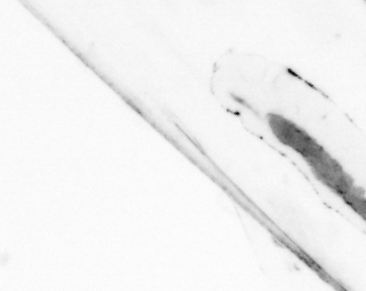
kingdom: Animalia
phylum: Chaetognatha
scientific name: Chaetognatha
